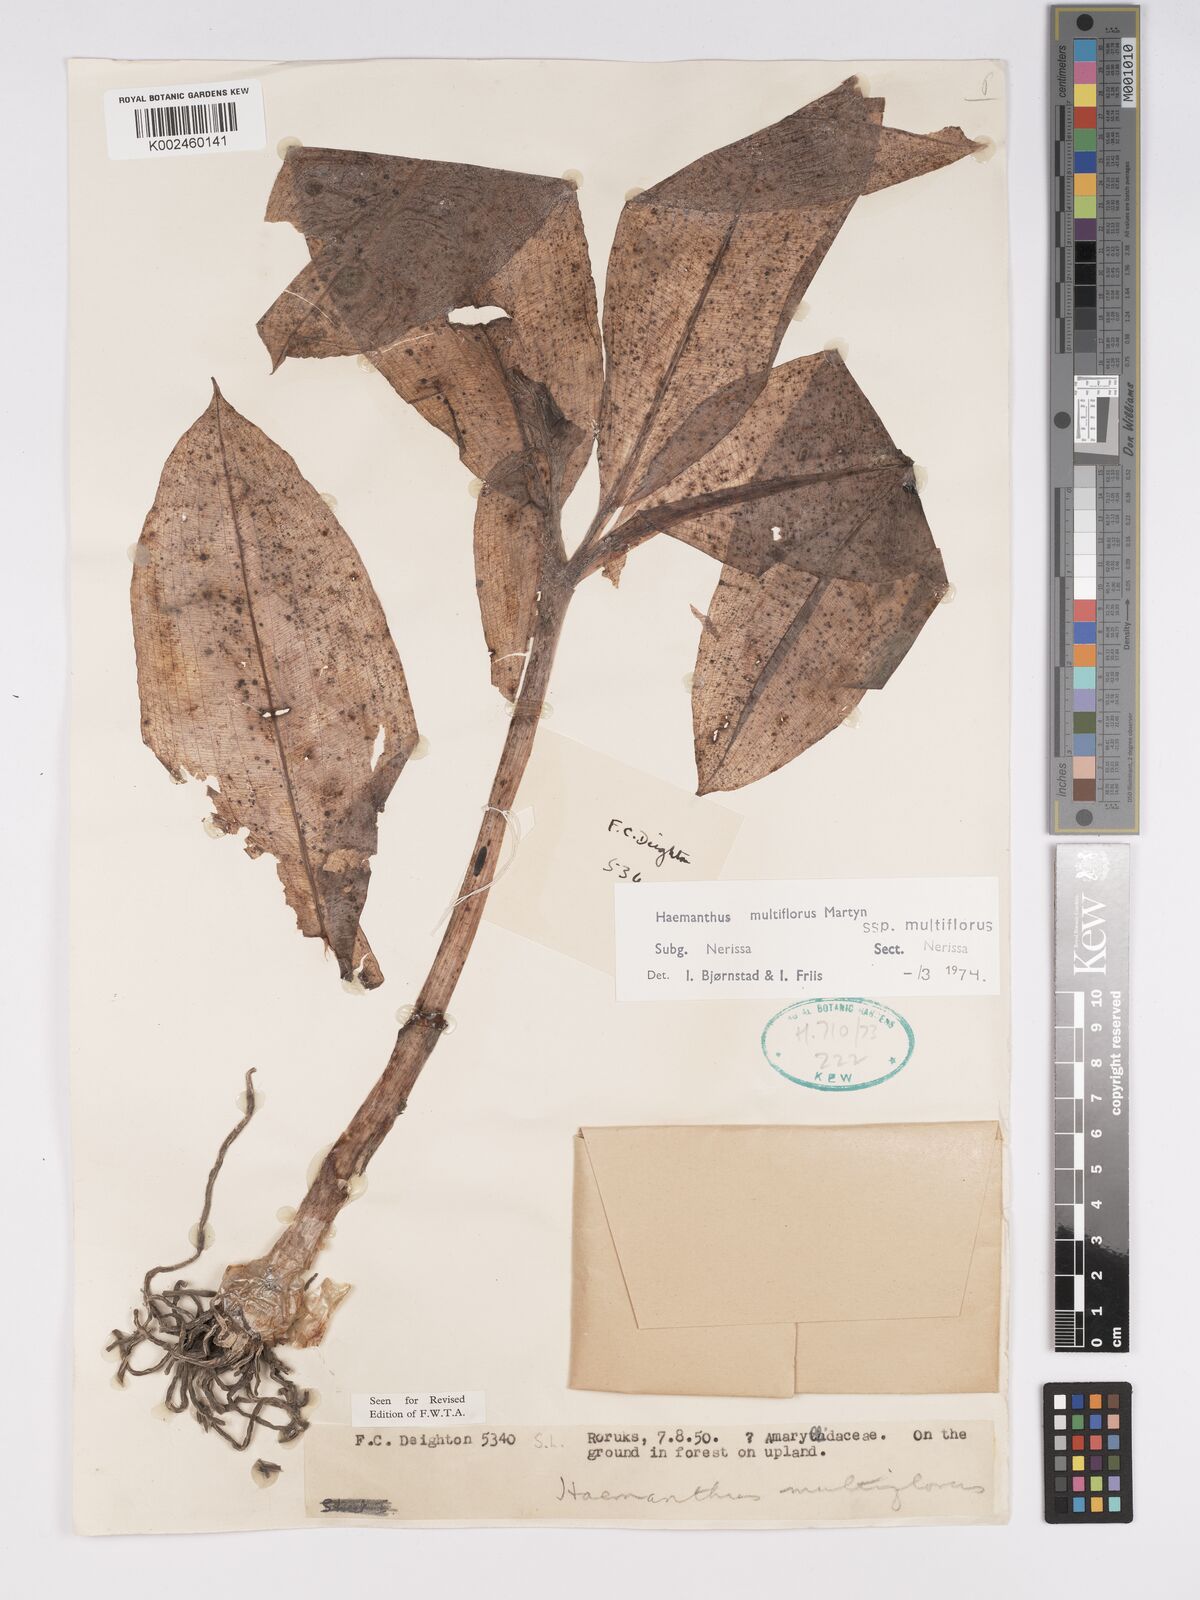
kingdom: Plantae
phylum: Tracheophyta
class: Liliopsida
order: Asparagales
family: Amaryllidaceae
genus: Scadoxus
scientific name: Scadoxus multiflorus
